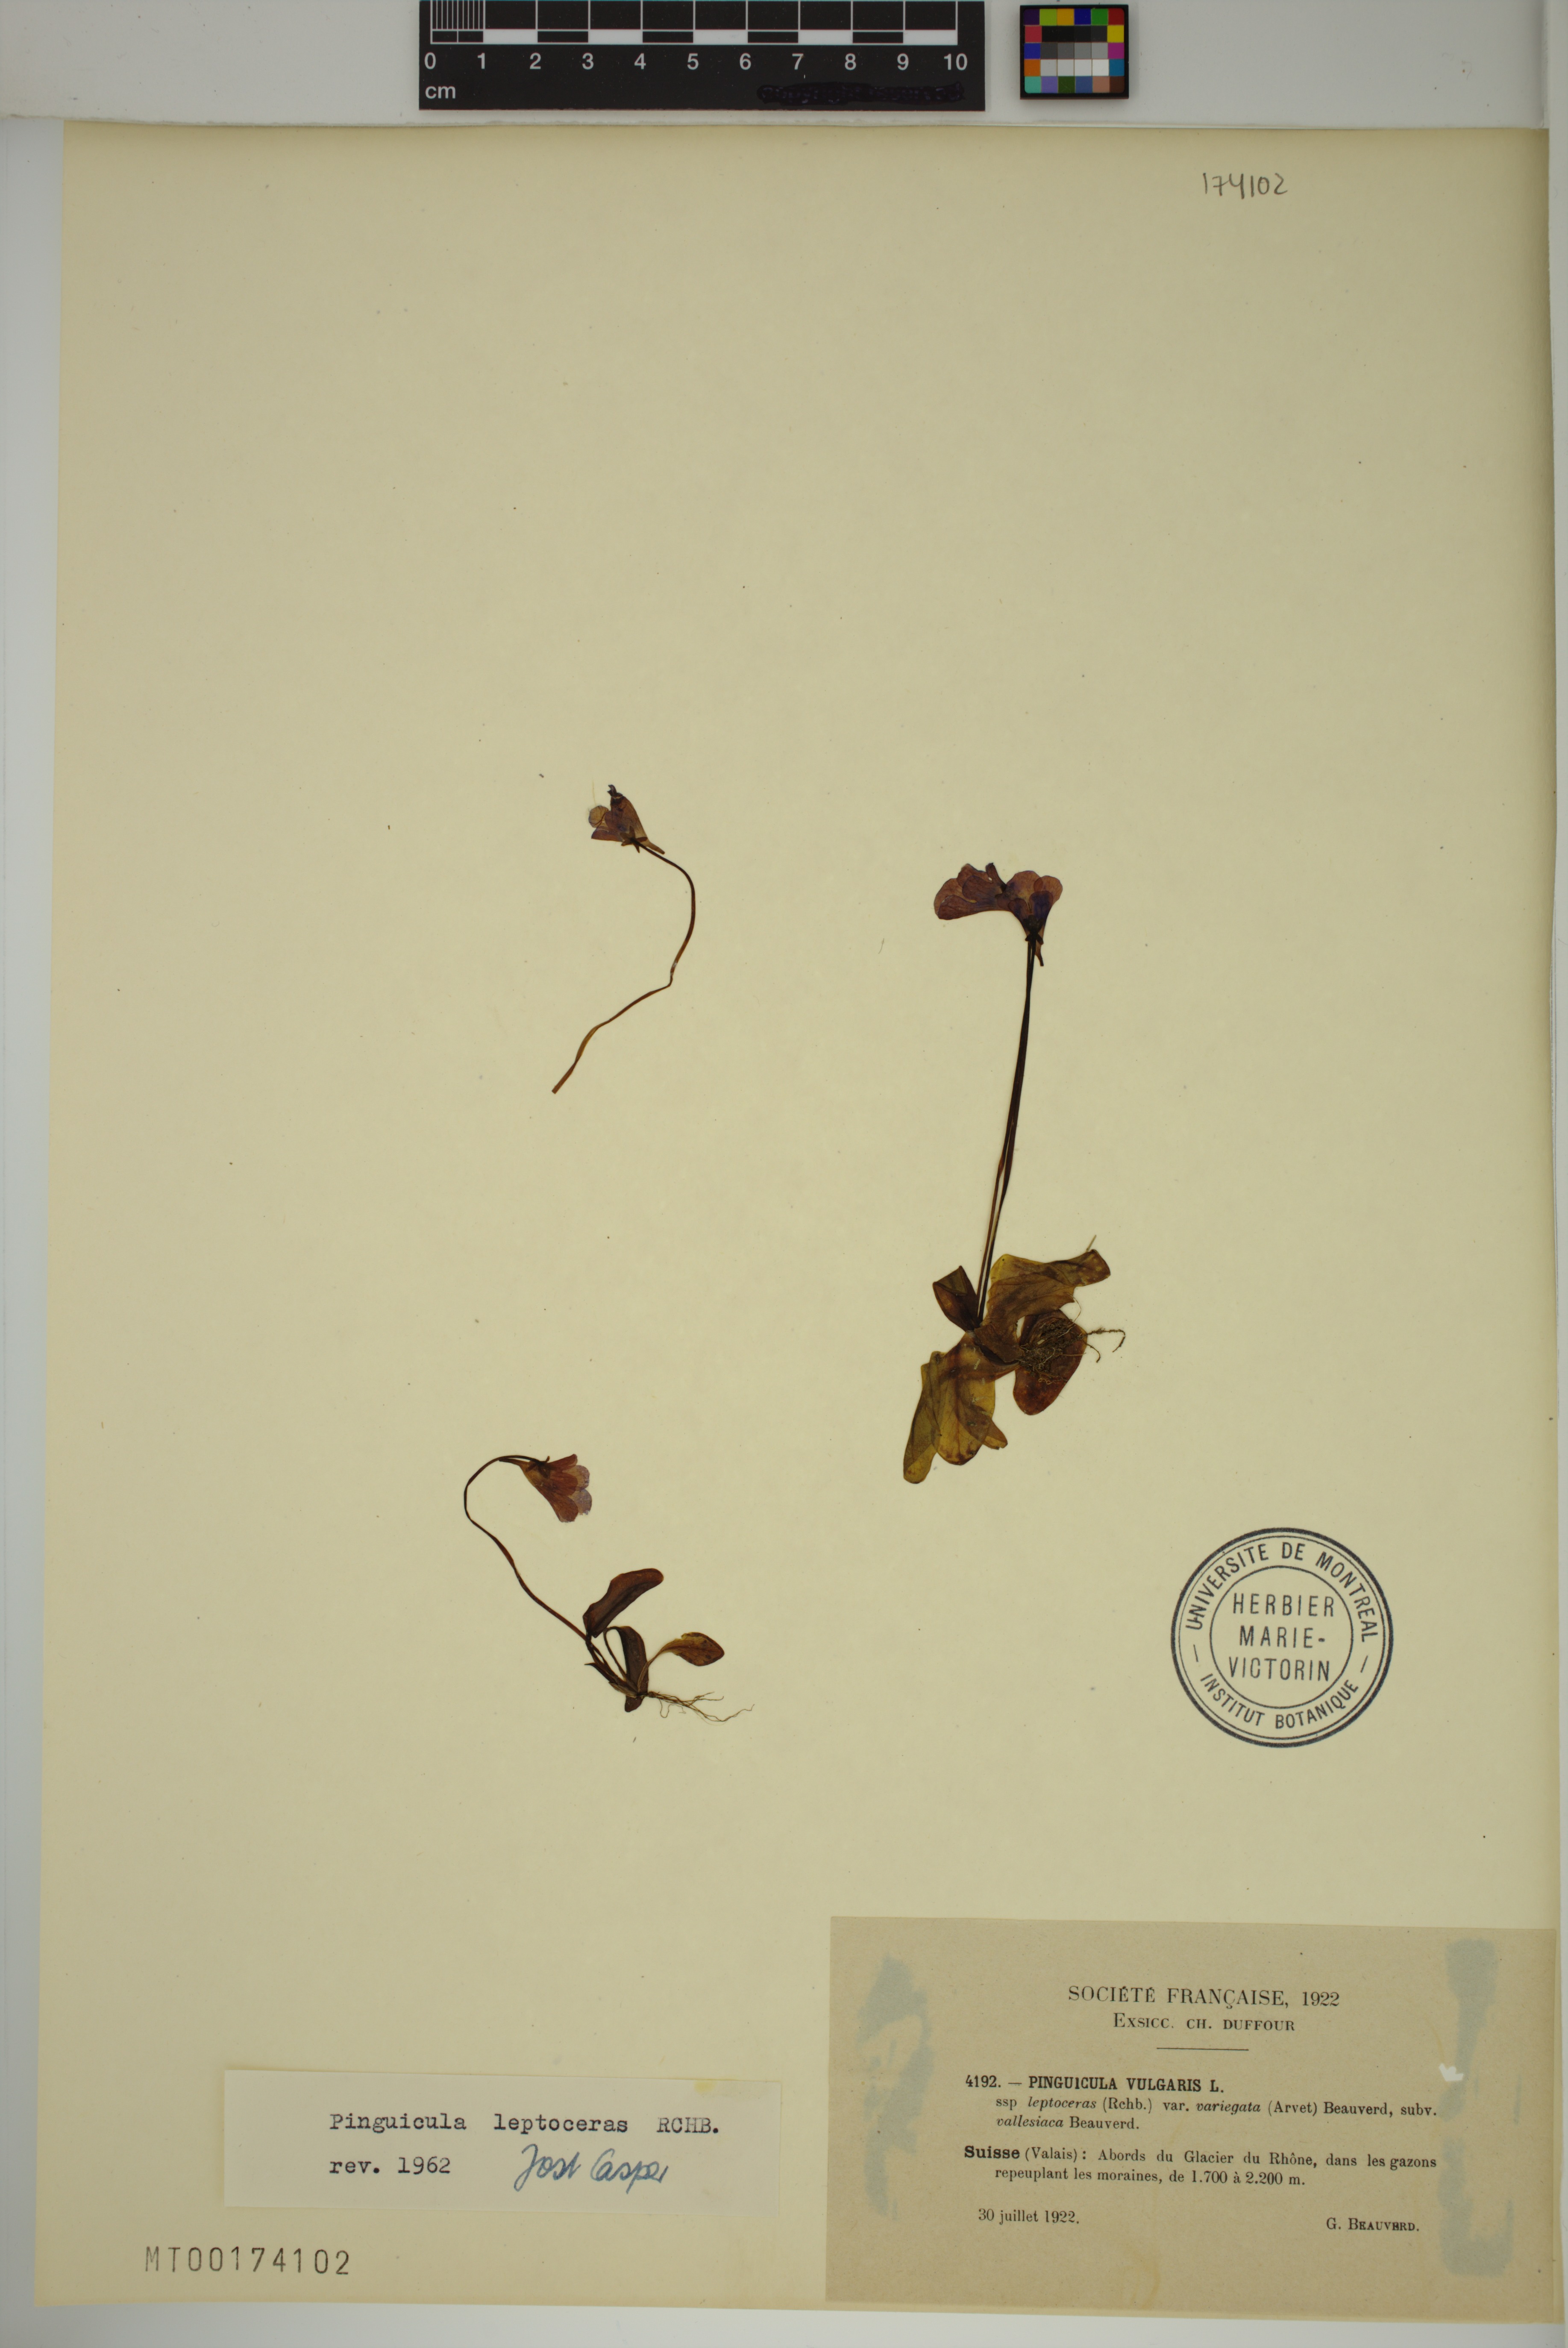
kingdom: Plantae
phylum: Tracheophyta
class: Magnoliopsida
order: Lamiales
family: Lentibulariaceae
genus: Pinguicula
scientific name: Pinguicula leptoceras
